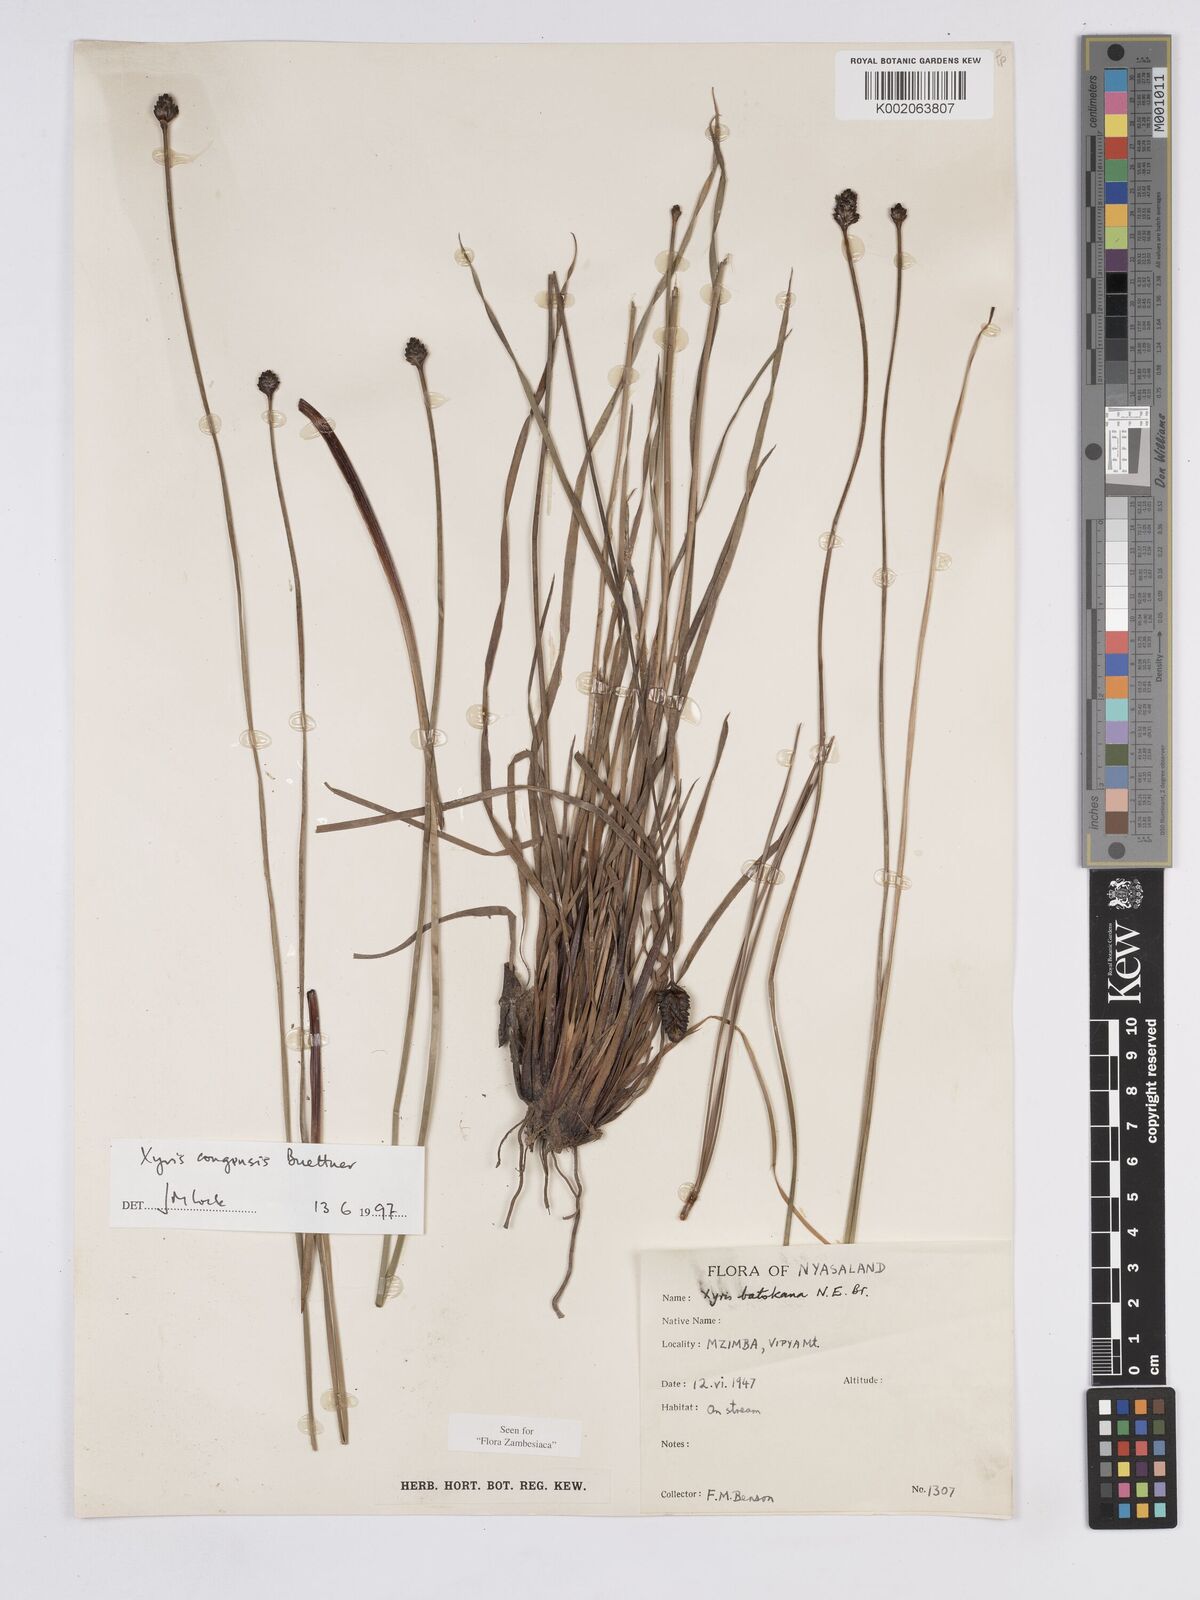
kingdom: Plantae
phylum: Tracheophyta
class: Liliopsida
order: Poales
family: Xyridaceae
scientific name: Xyridaceae
